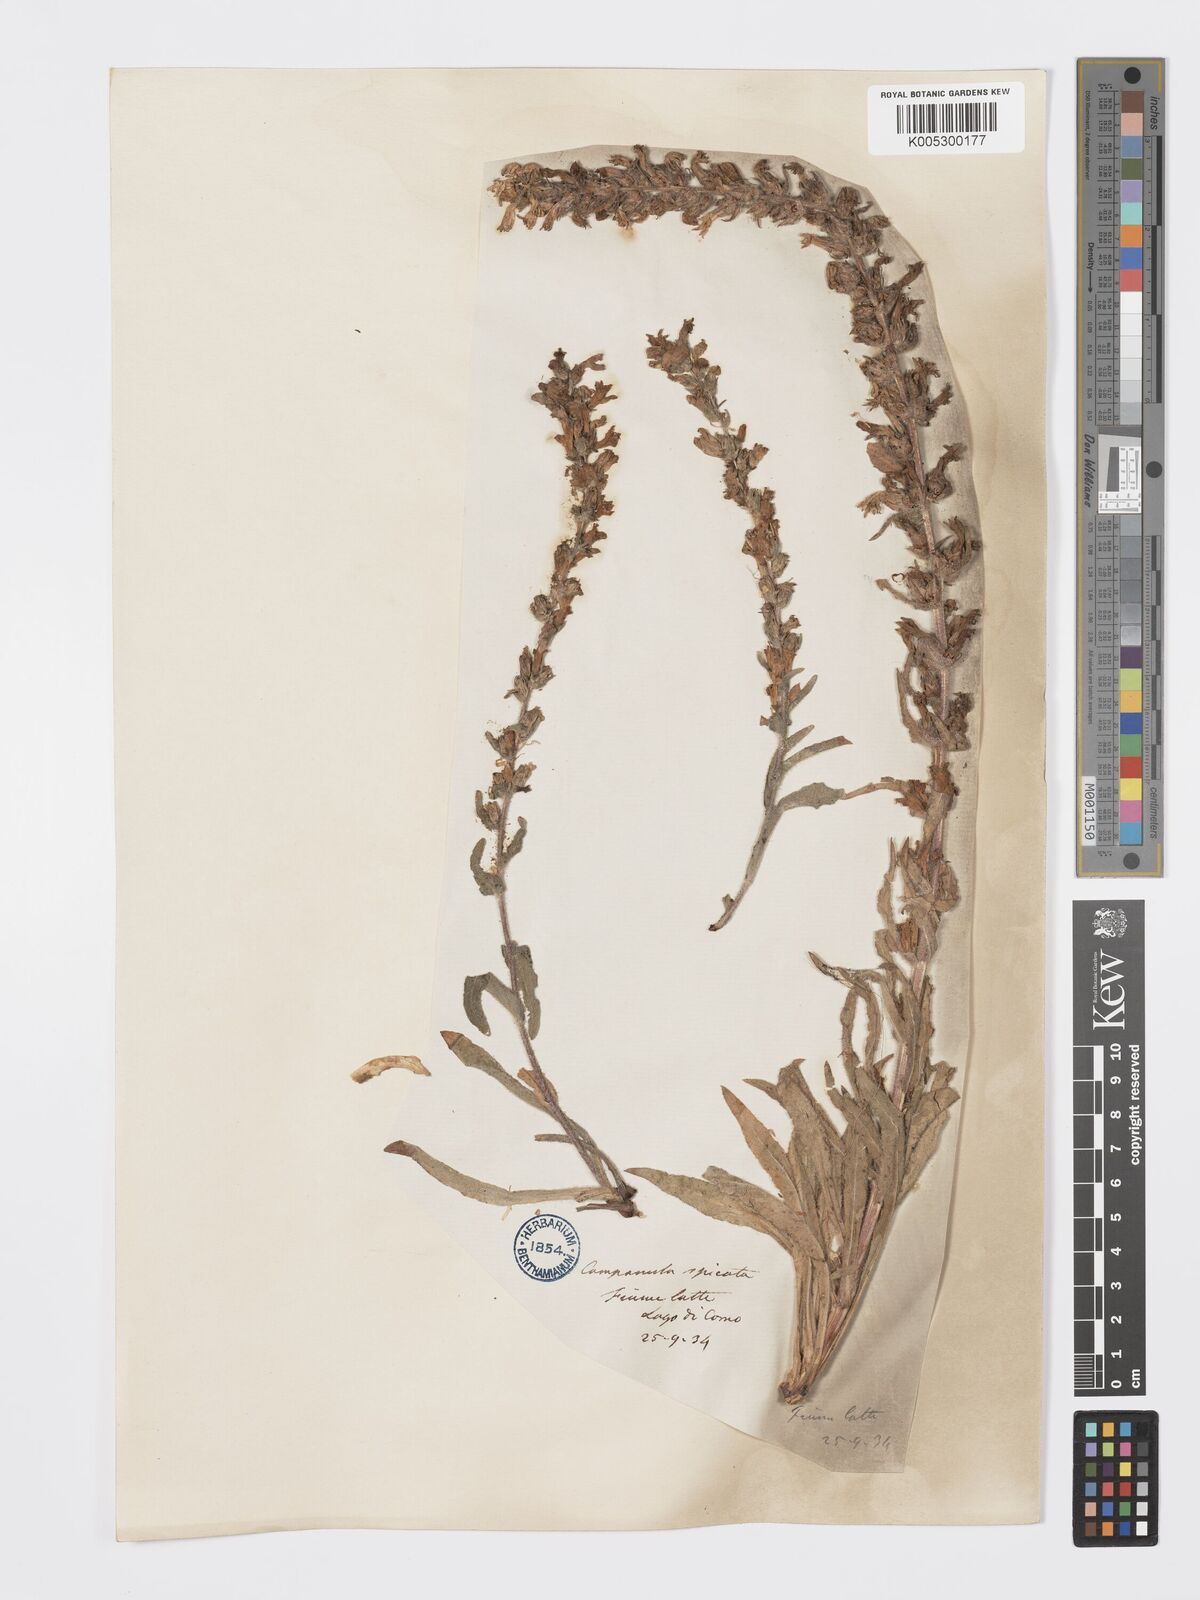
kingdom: Plantae
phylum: Tracheophyta
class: Magnoliopsida
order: Asterales
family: Campanulaceae
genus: Campanula
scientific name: Campanula spicata
